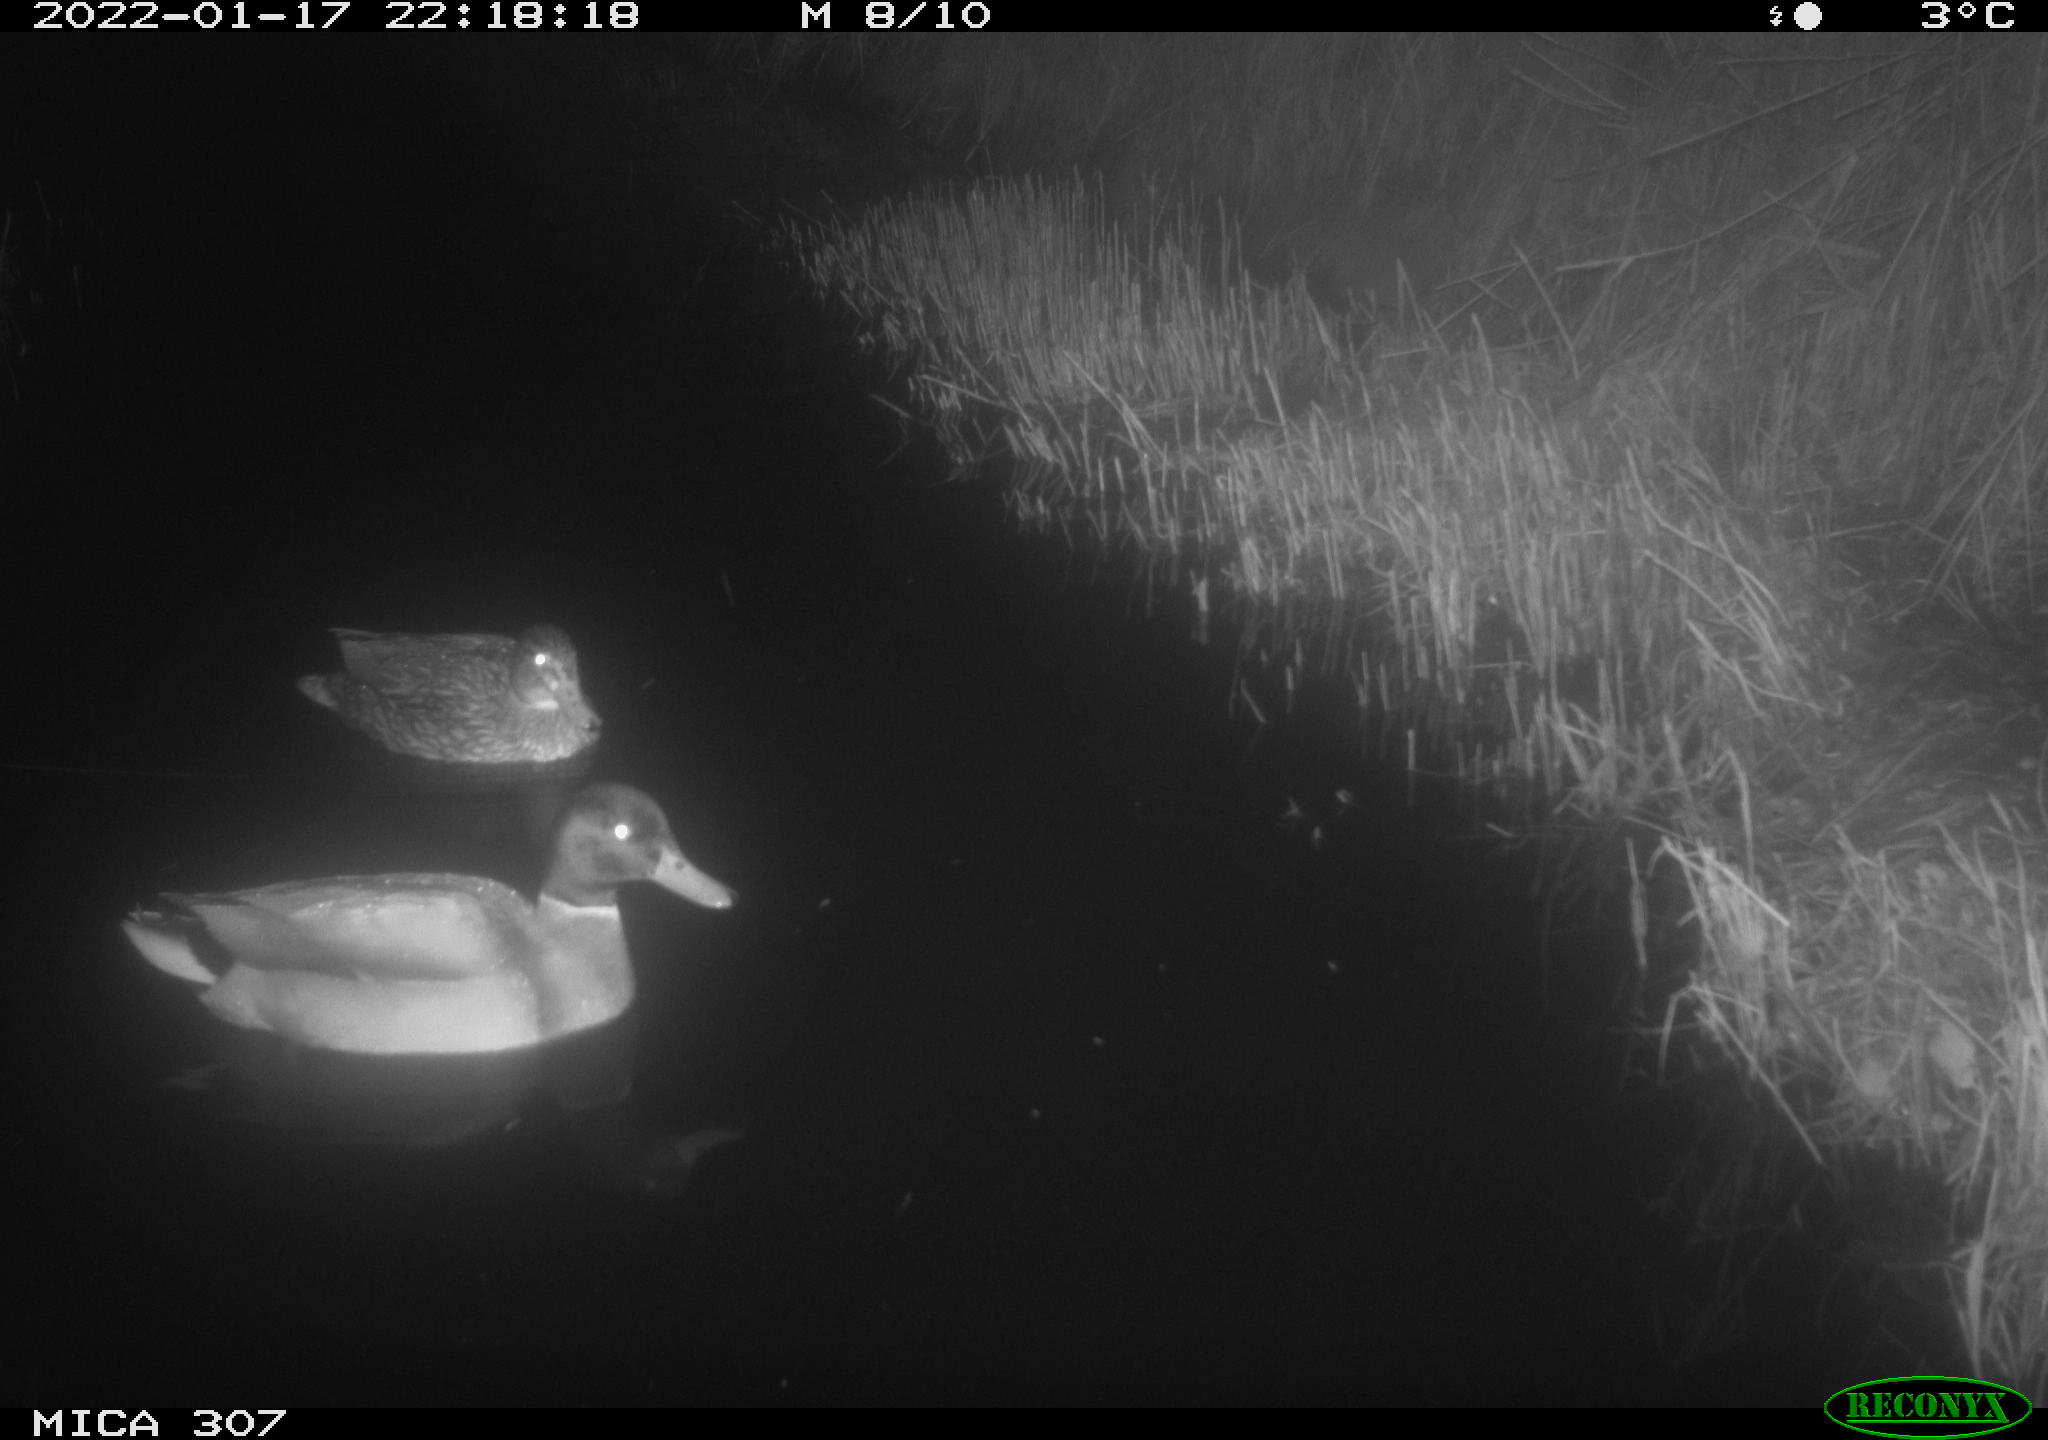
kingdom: Animalia
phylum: Chordata
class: Aves
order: Anseriformes
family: Anatidae
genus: Anas
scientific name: Anas
